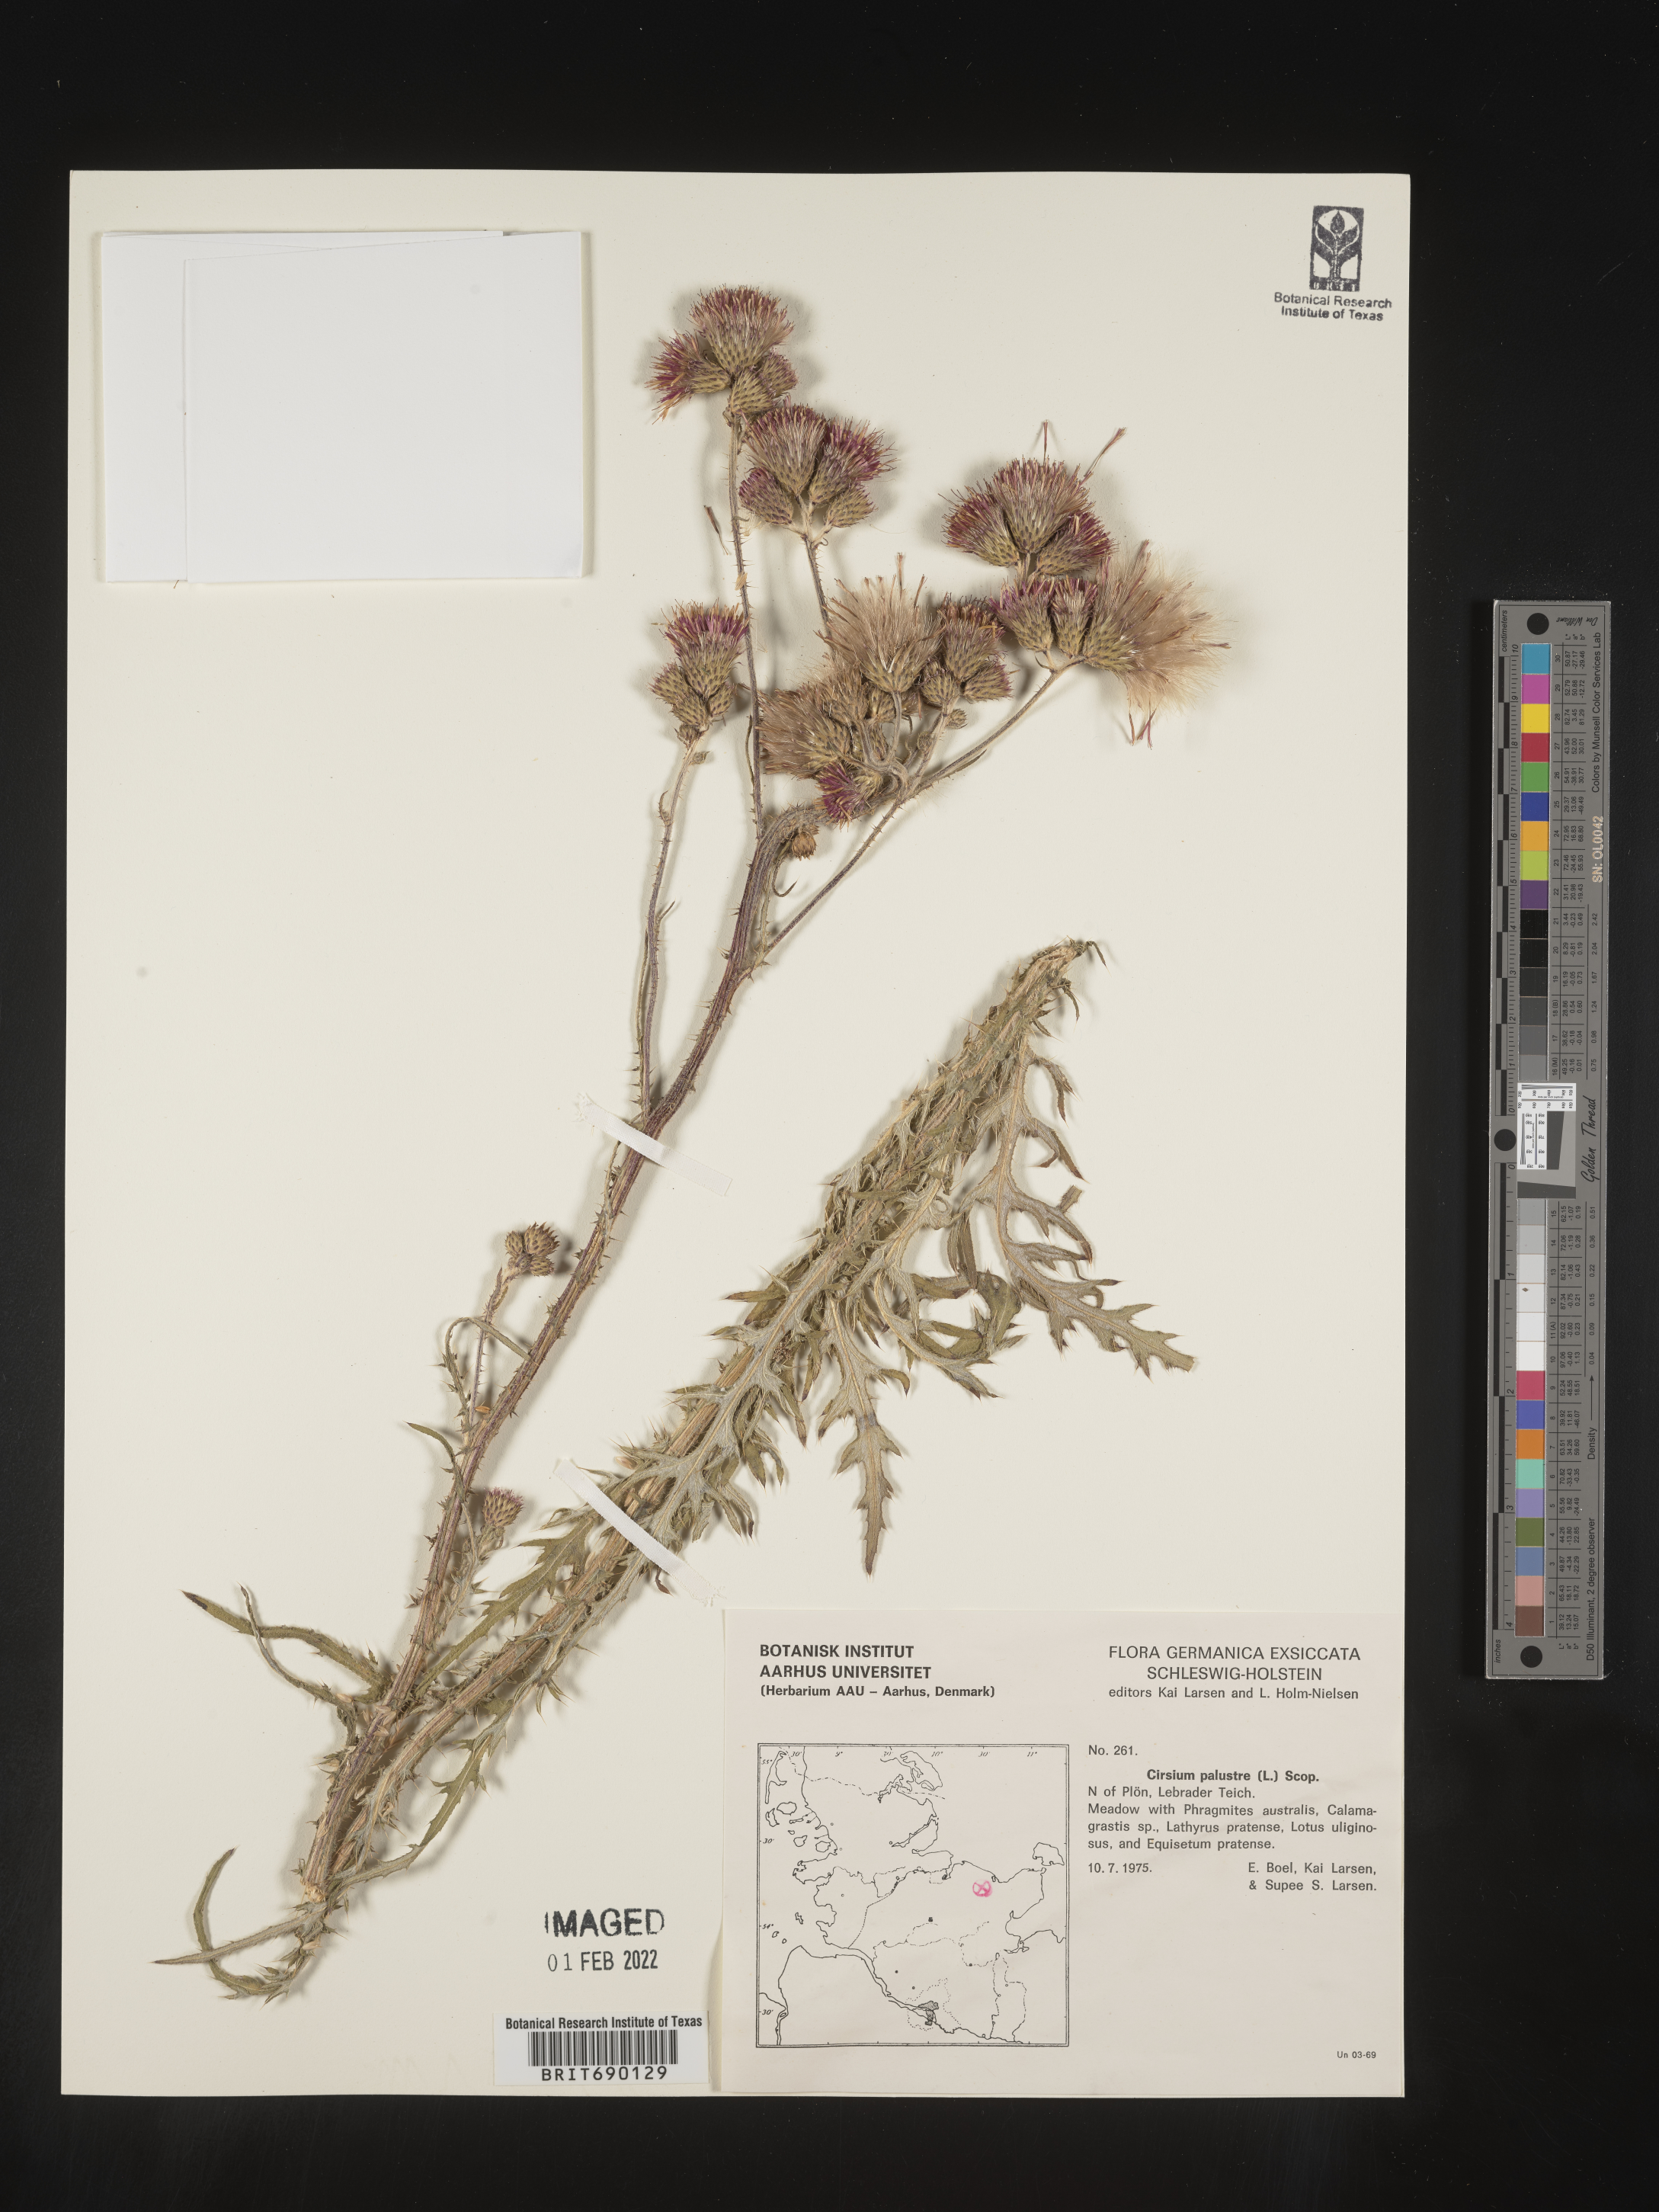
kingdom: Plantae
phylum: Tracheophyta
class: Magnoliopsida
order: Asterales
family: Asteraceae
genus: Cirsium
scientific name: Cirsium
